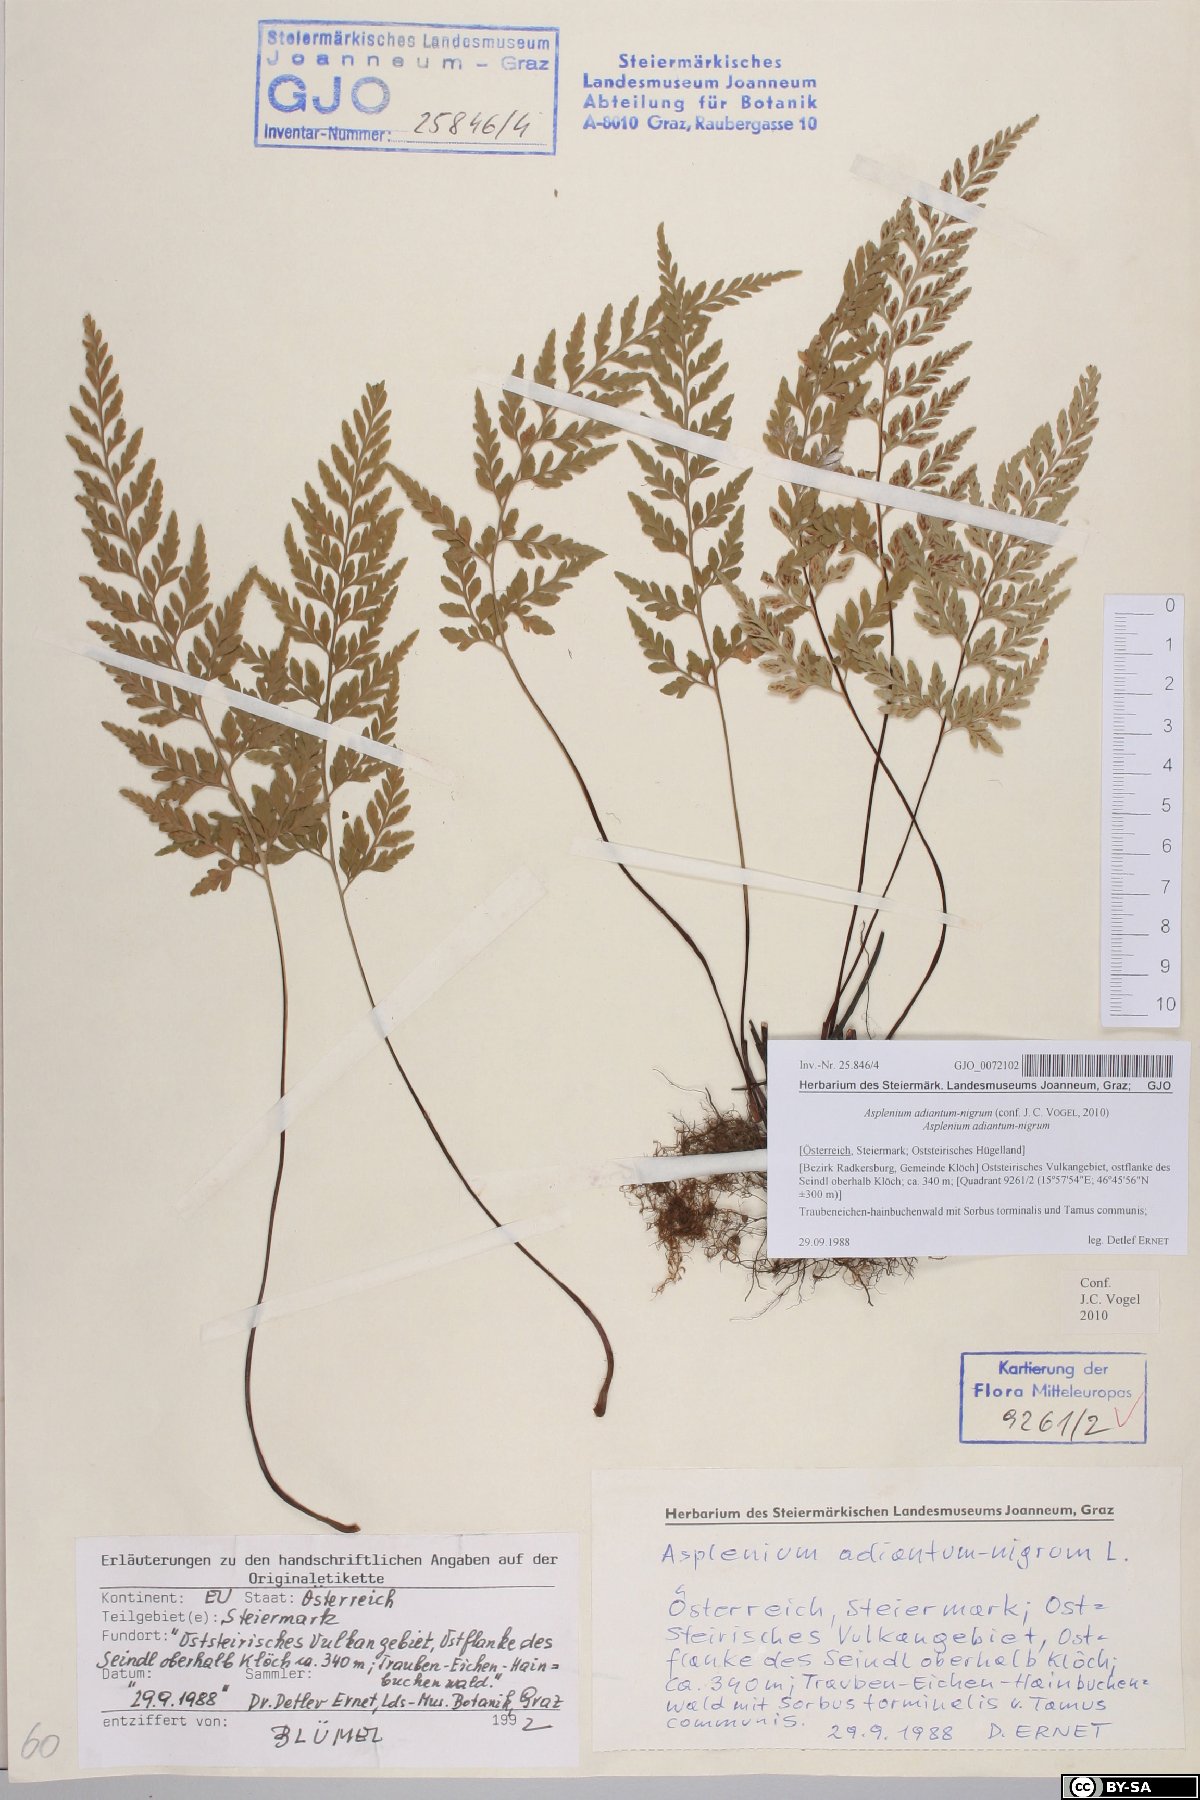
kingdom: Plantae
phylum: Tracheophyta
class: Polypodiopsida
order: Polypodiales
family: Aspleniaceae
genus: Asplenium
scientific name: Asplenium adiantum-nigrum
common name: Black spleenwort
